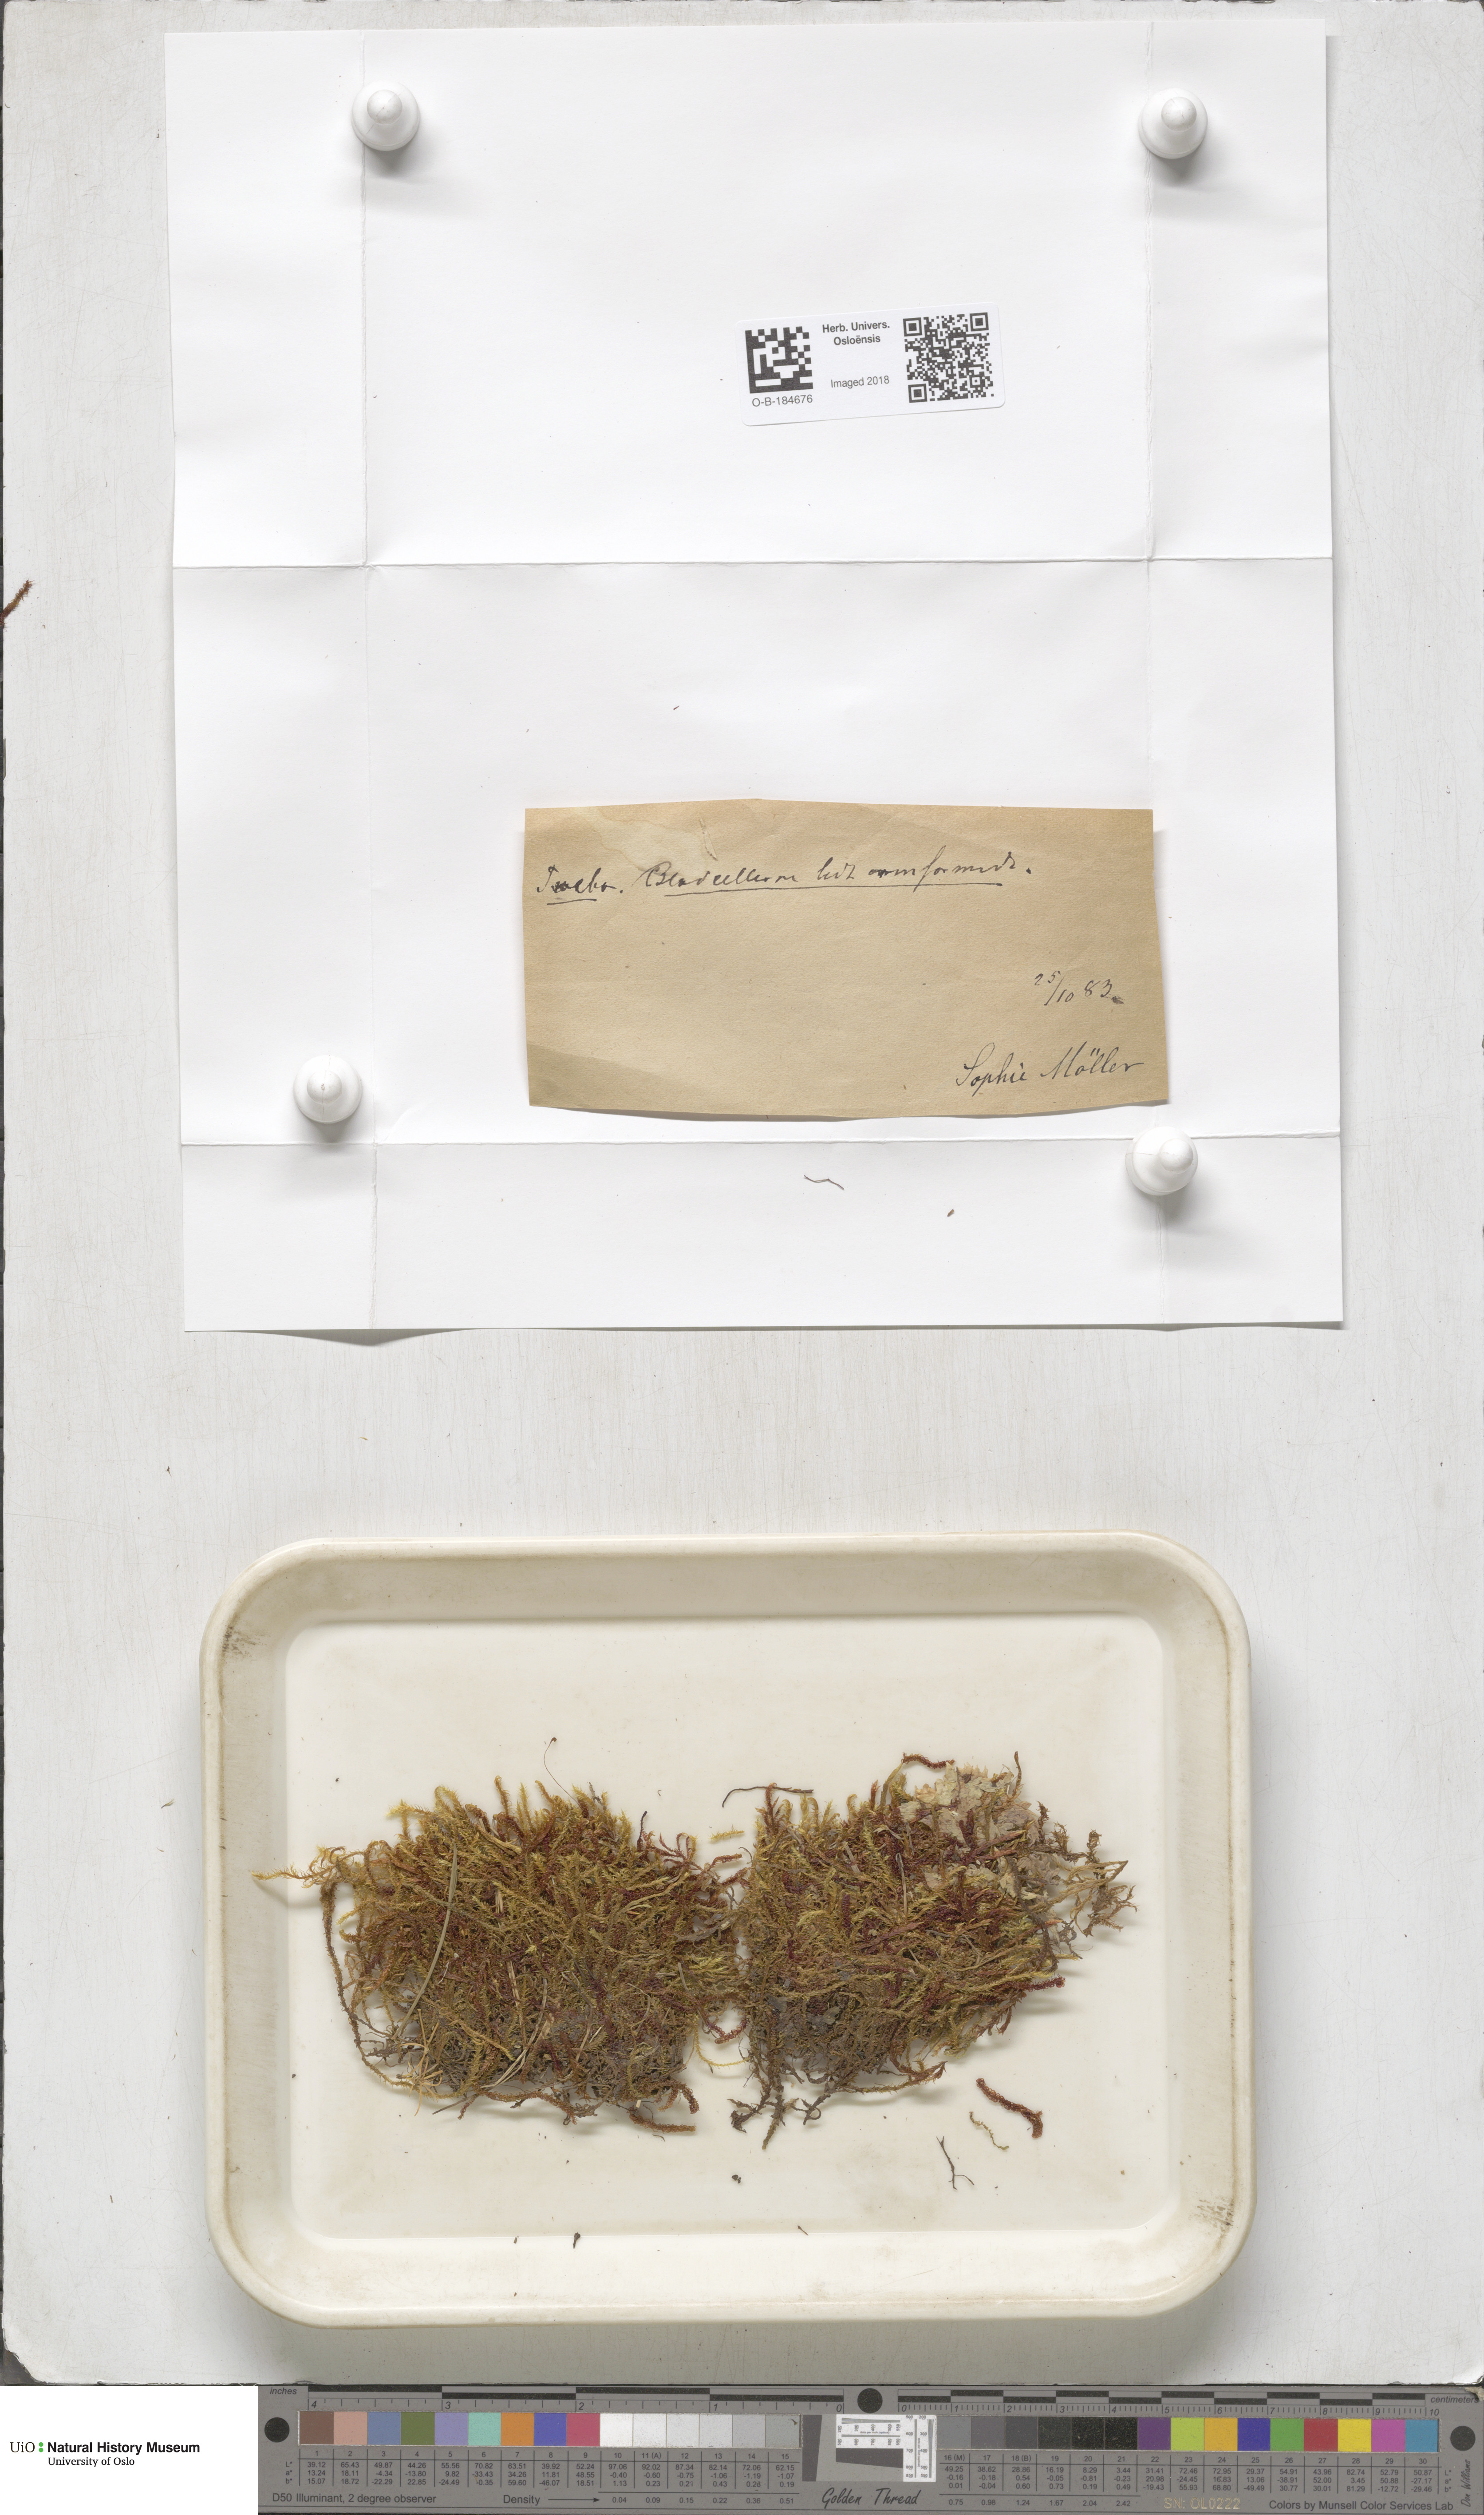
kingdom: Plantae
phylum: Bryophyta
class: Bryopsida
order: Hypnales
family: Scorpidiaceae
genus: Scorpidium
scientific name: Scorpidium cossonii
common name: Cosson's hook moss
